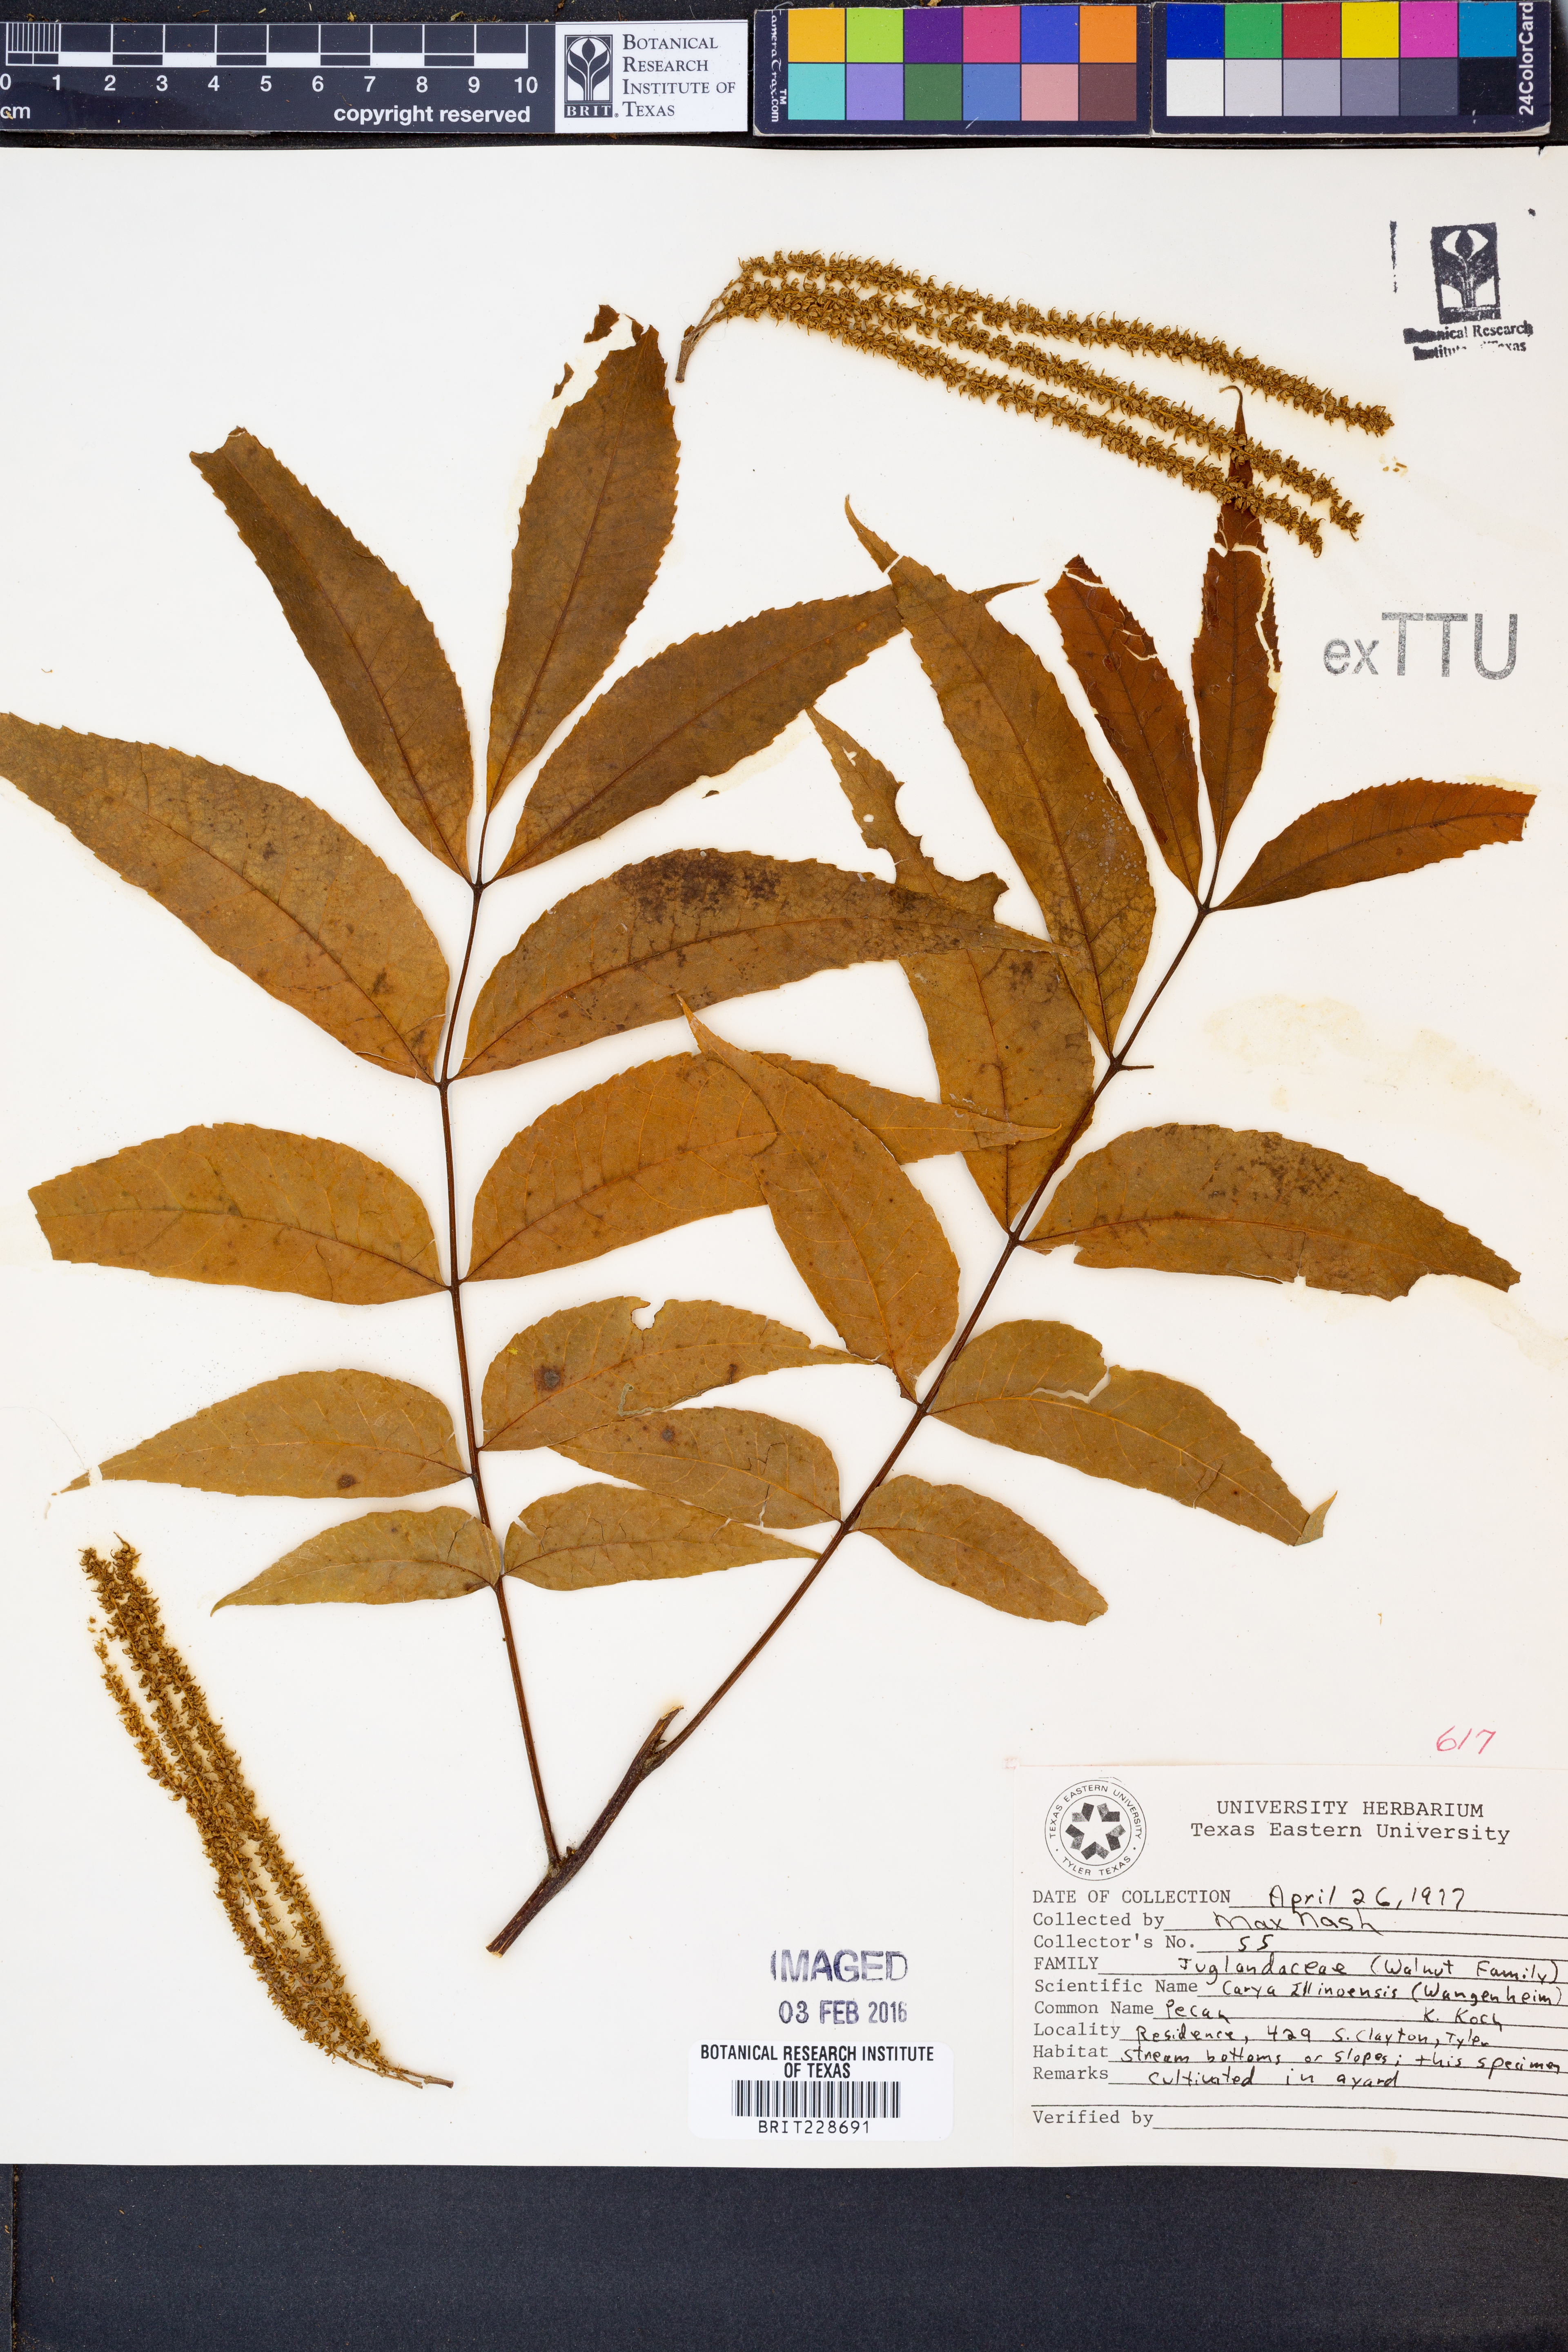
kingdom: Plantae
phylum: Tracheophyta
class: Magnoliopsida
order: Fagales
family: Juglandaceae
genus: Carya
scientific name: Carya
